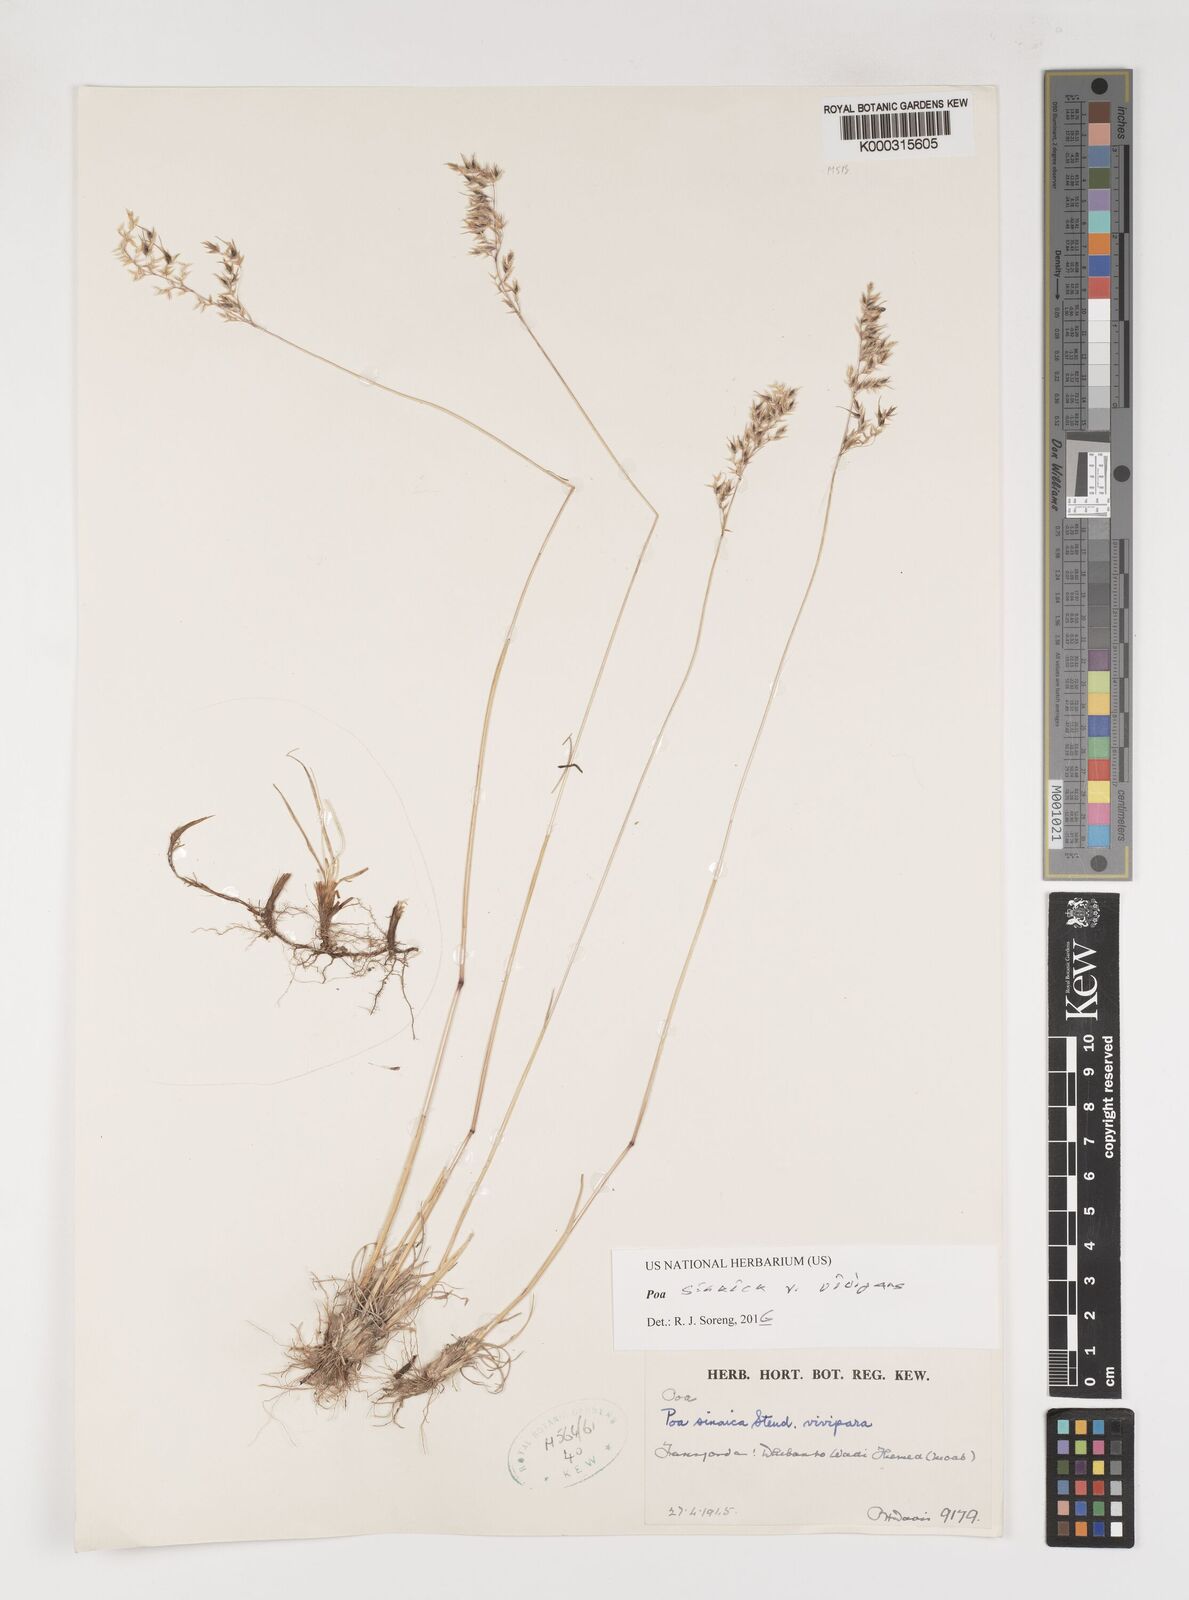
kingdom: Plantae
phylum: Tracheophyta
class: Liliopsida
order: Poales
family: Poaceae
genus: Poa
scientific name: Poa sinaica
